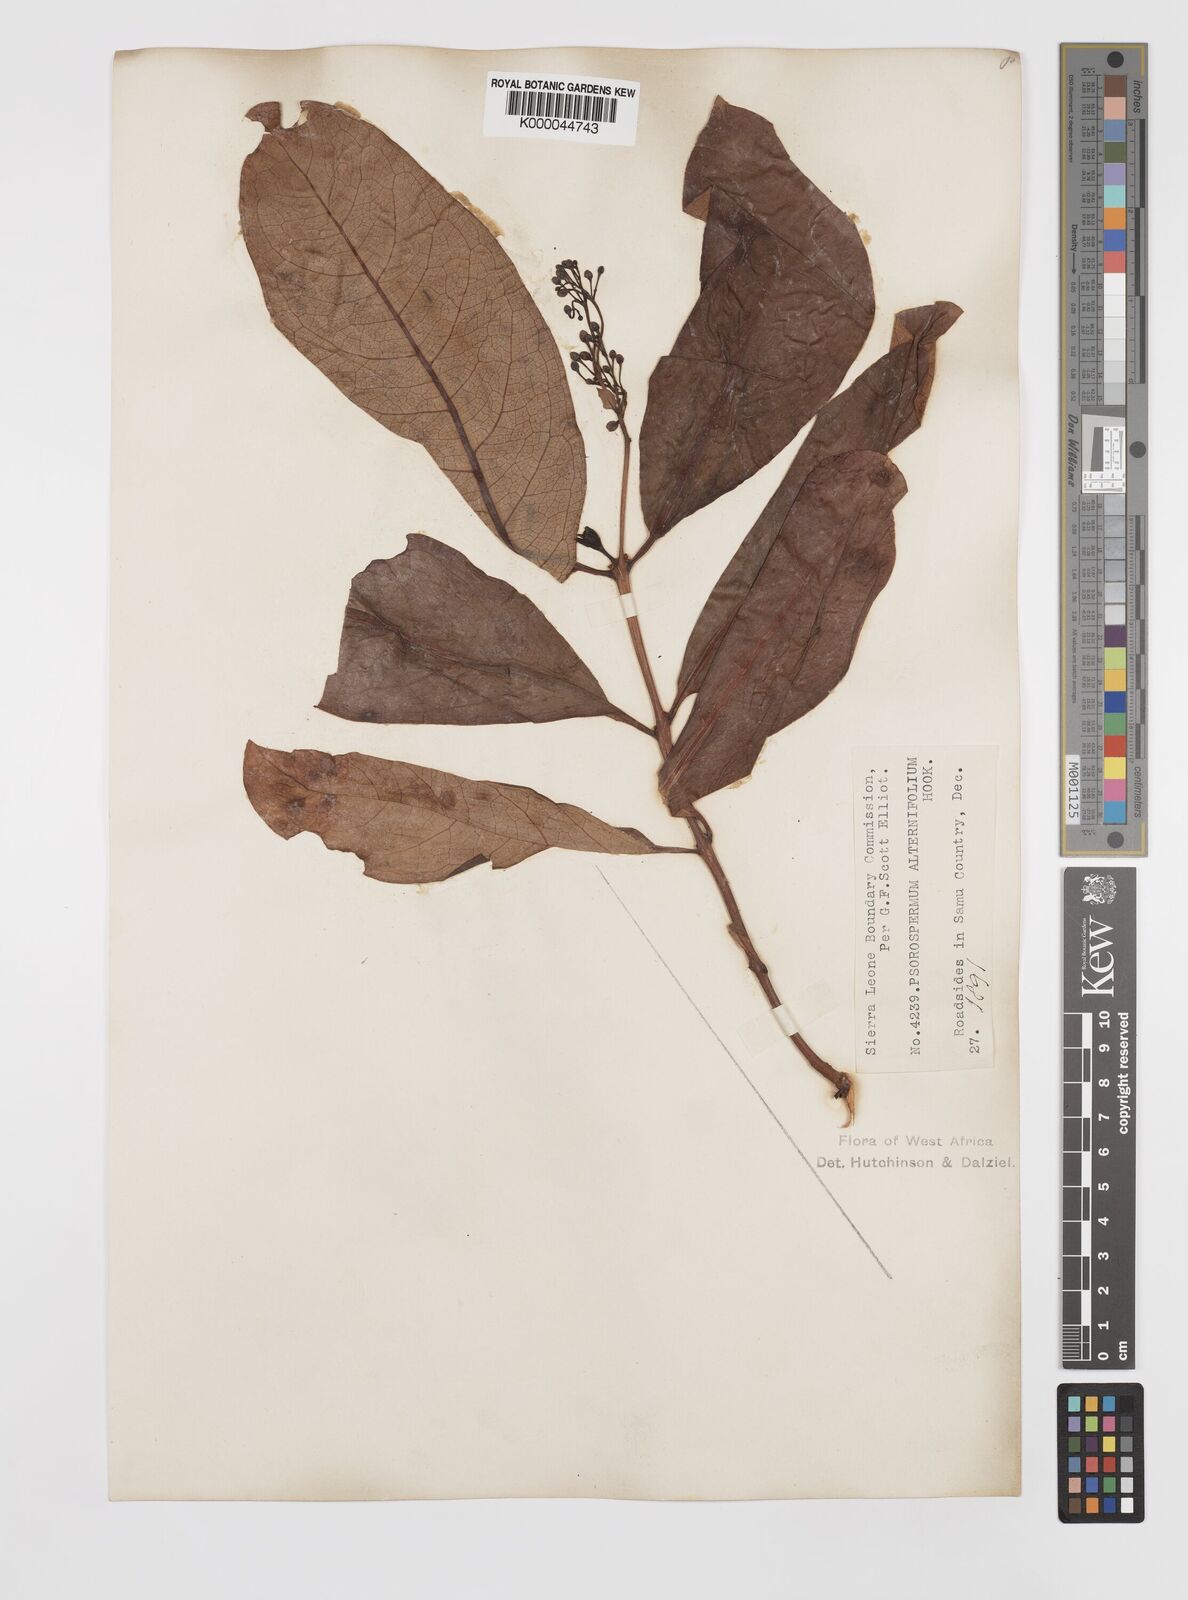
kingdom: Plantae
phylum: Tracheophyta
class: Magnoliopsida
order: Malpighiales
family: Hypericaceae
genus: Psorospermum
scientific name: Psorospermum alternifolium
